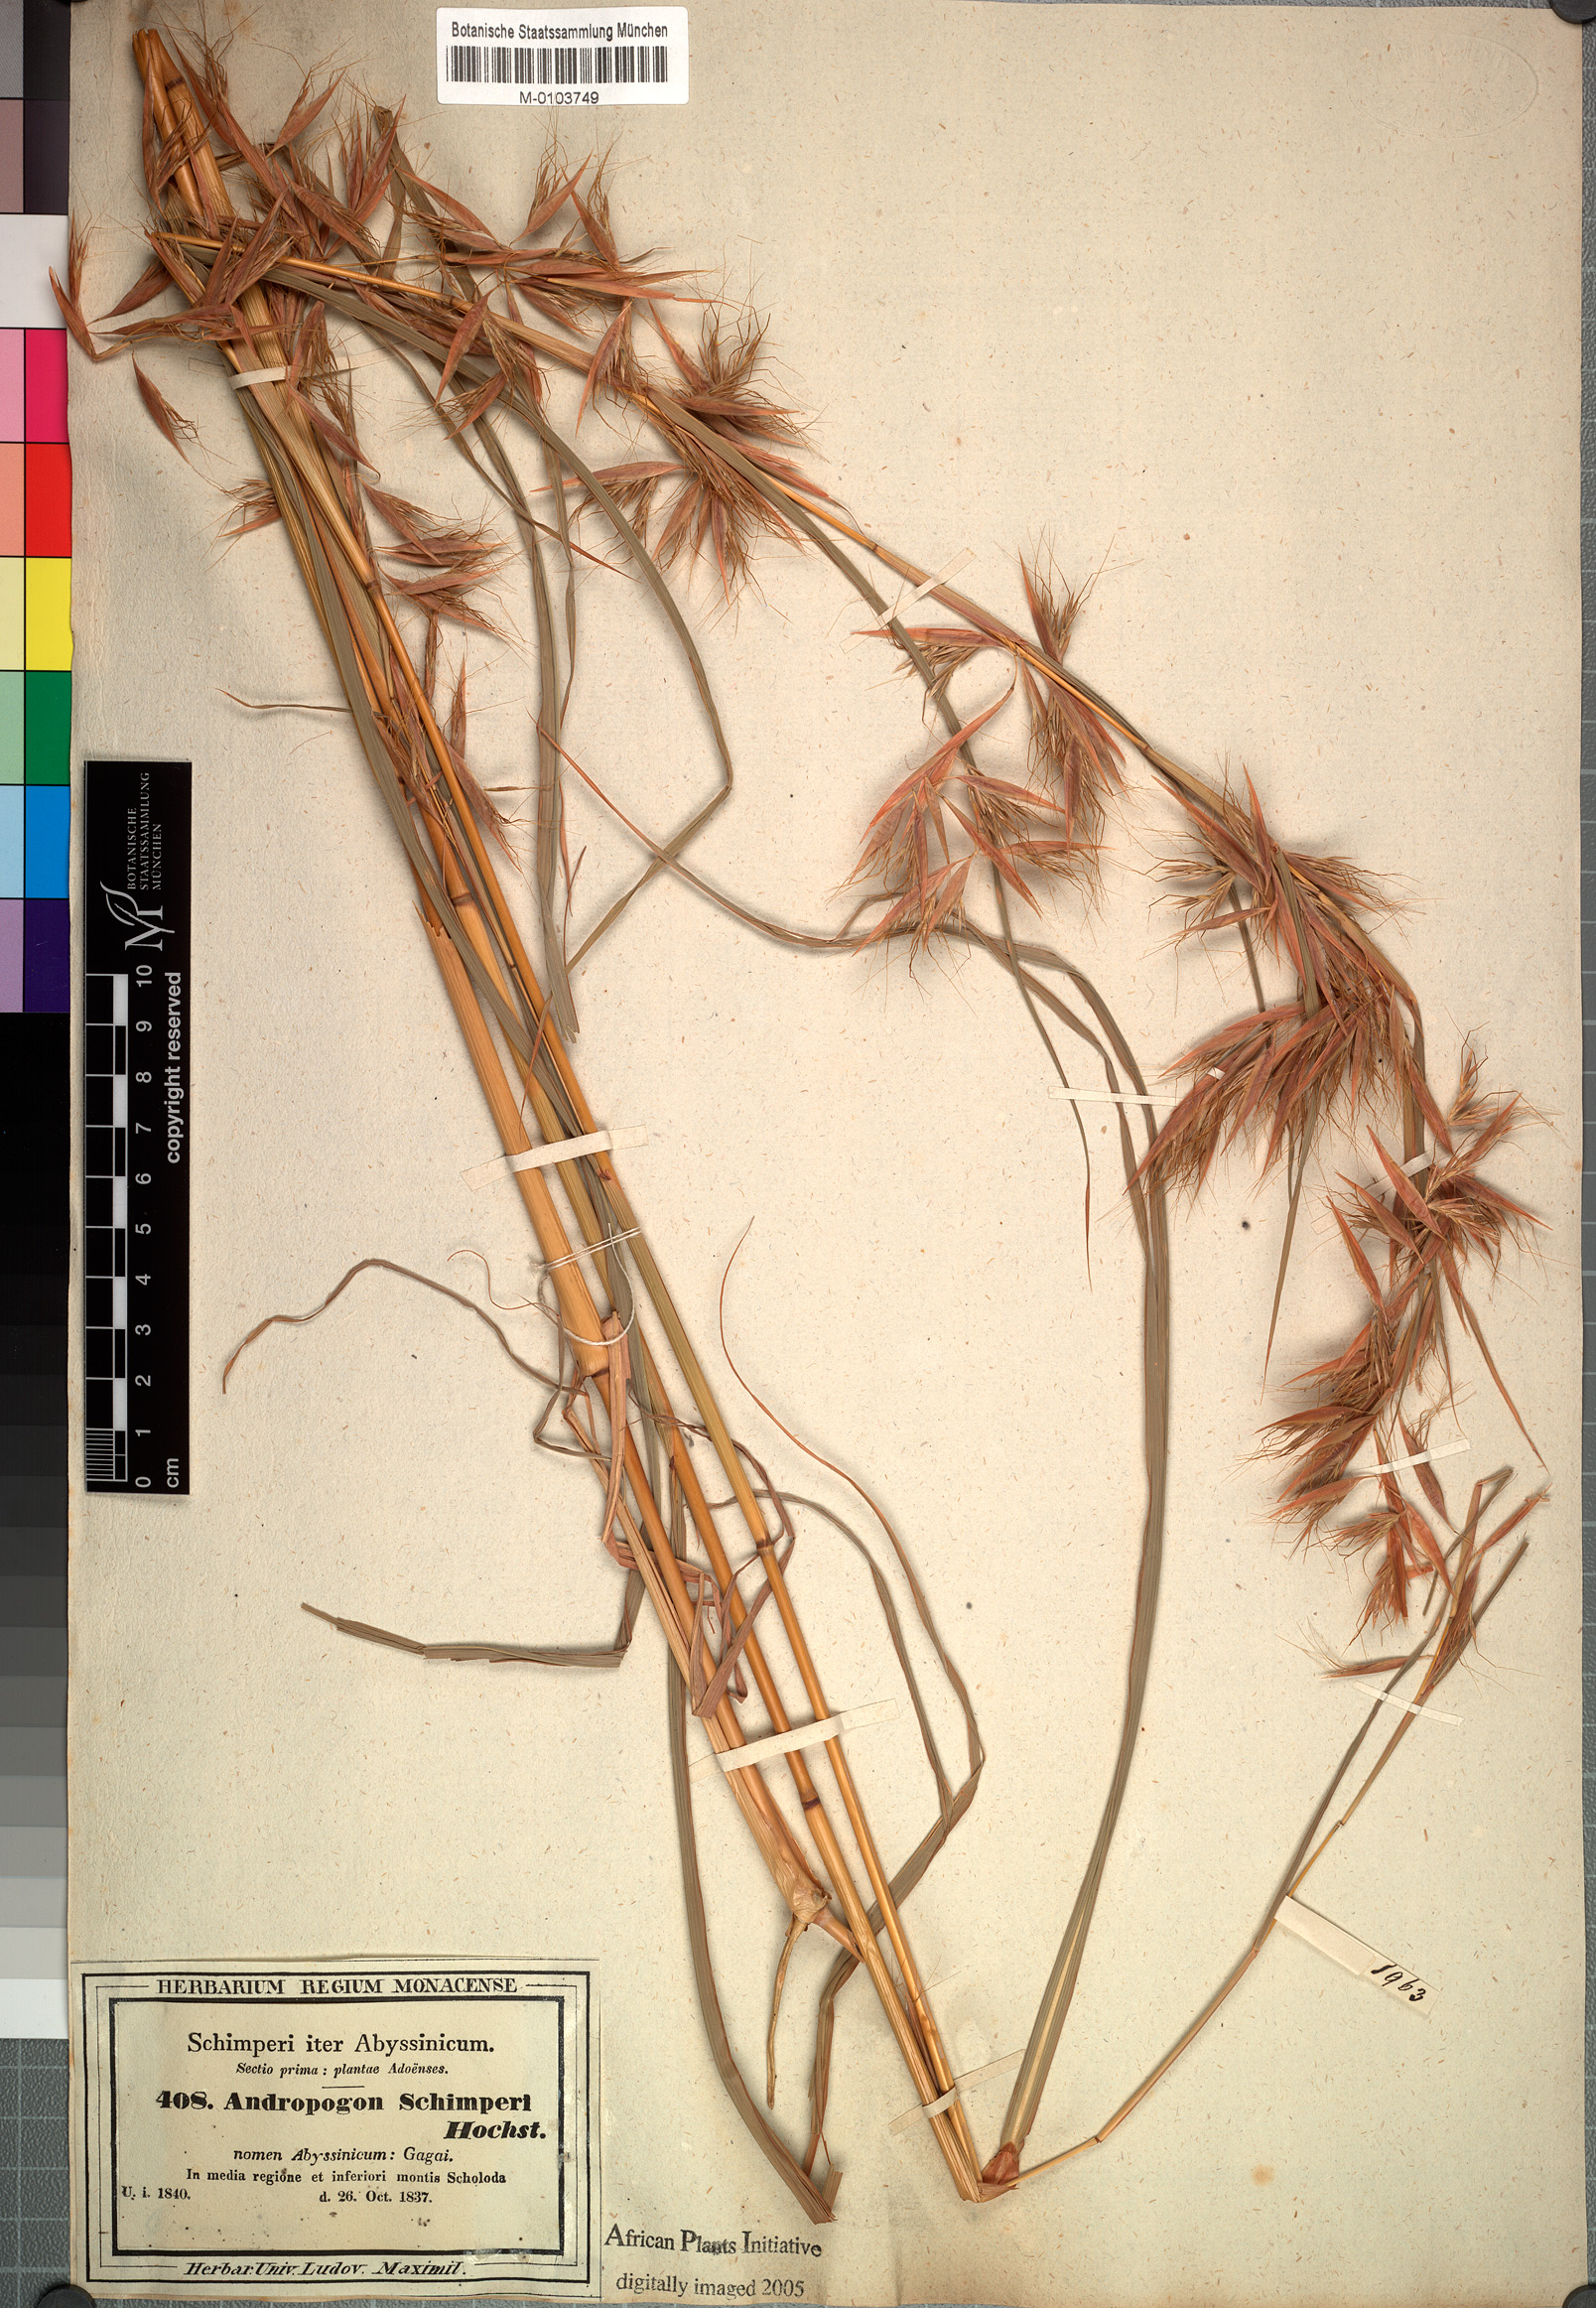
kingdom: Plantae
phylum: Tracheophyta
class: Liliopsida
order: Poales
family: Poaceae
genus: Hyparrhenia
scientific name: Hyparrhenia schimperi
